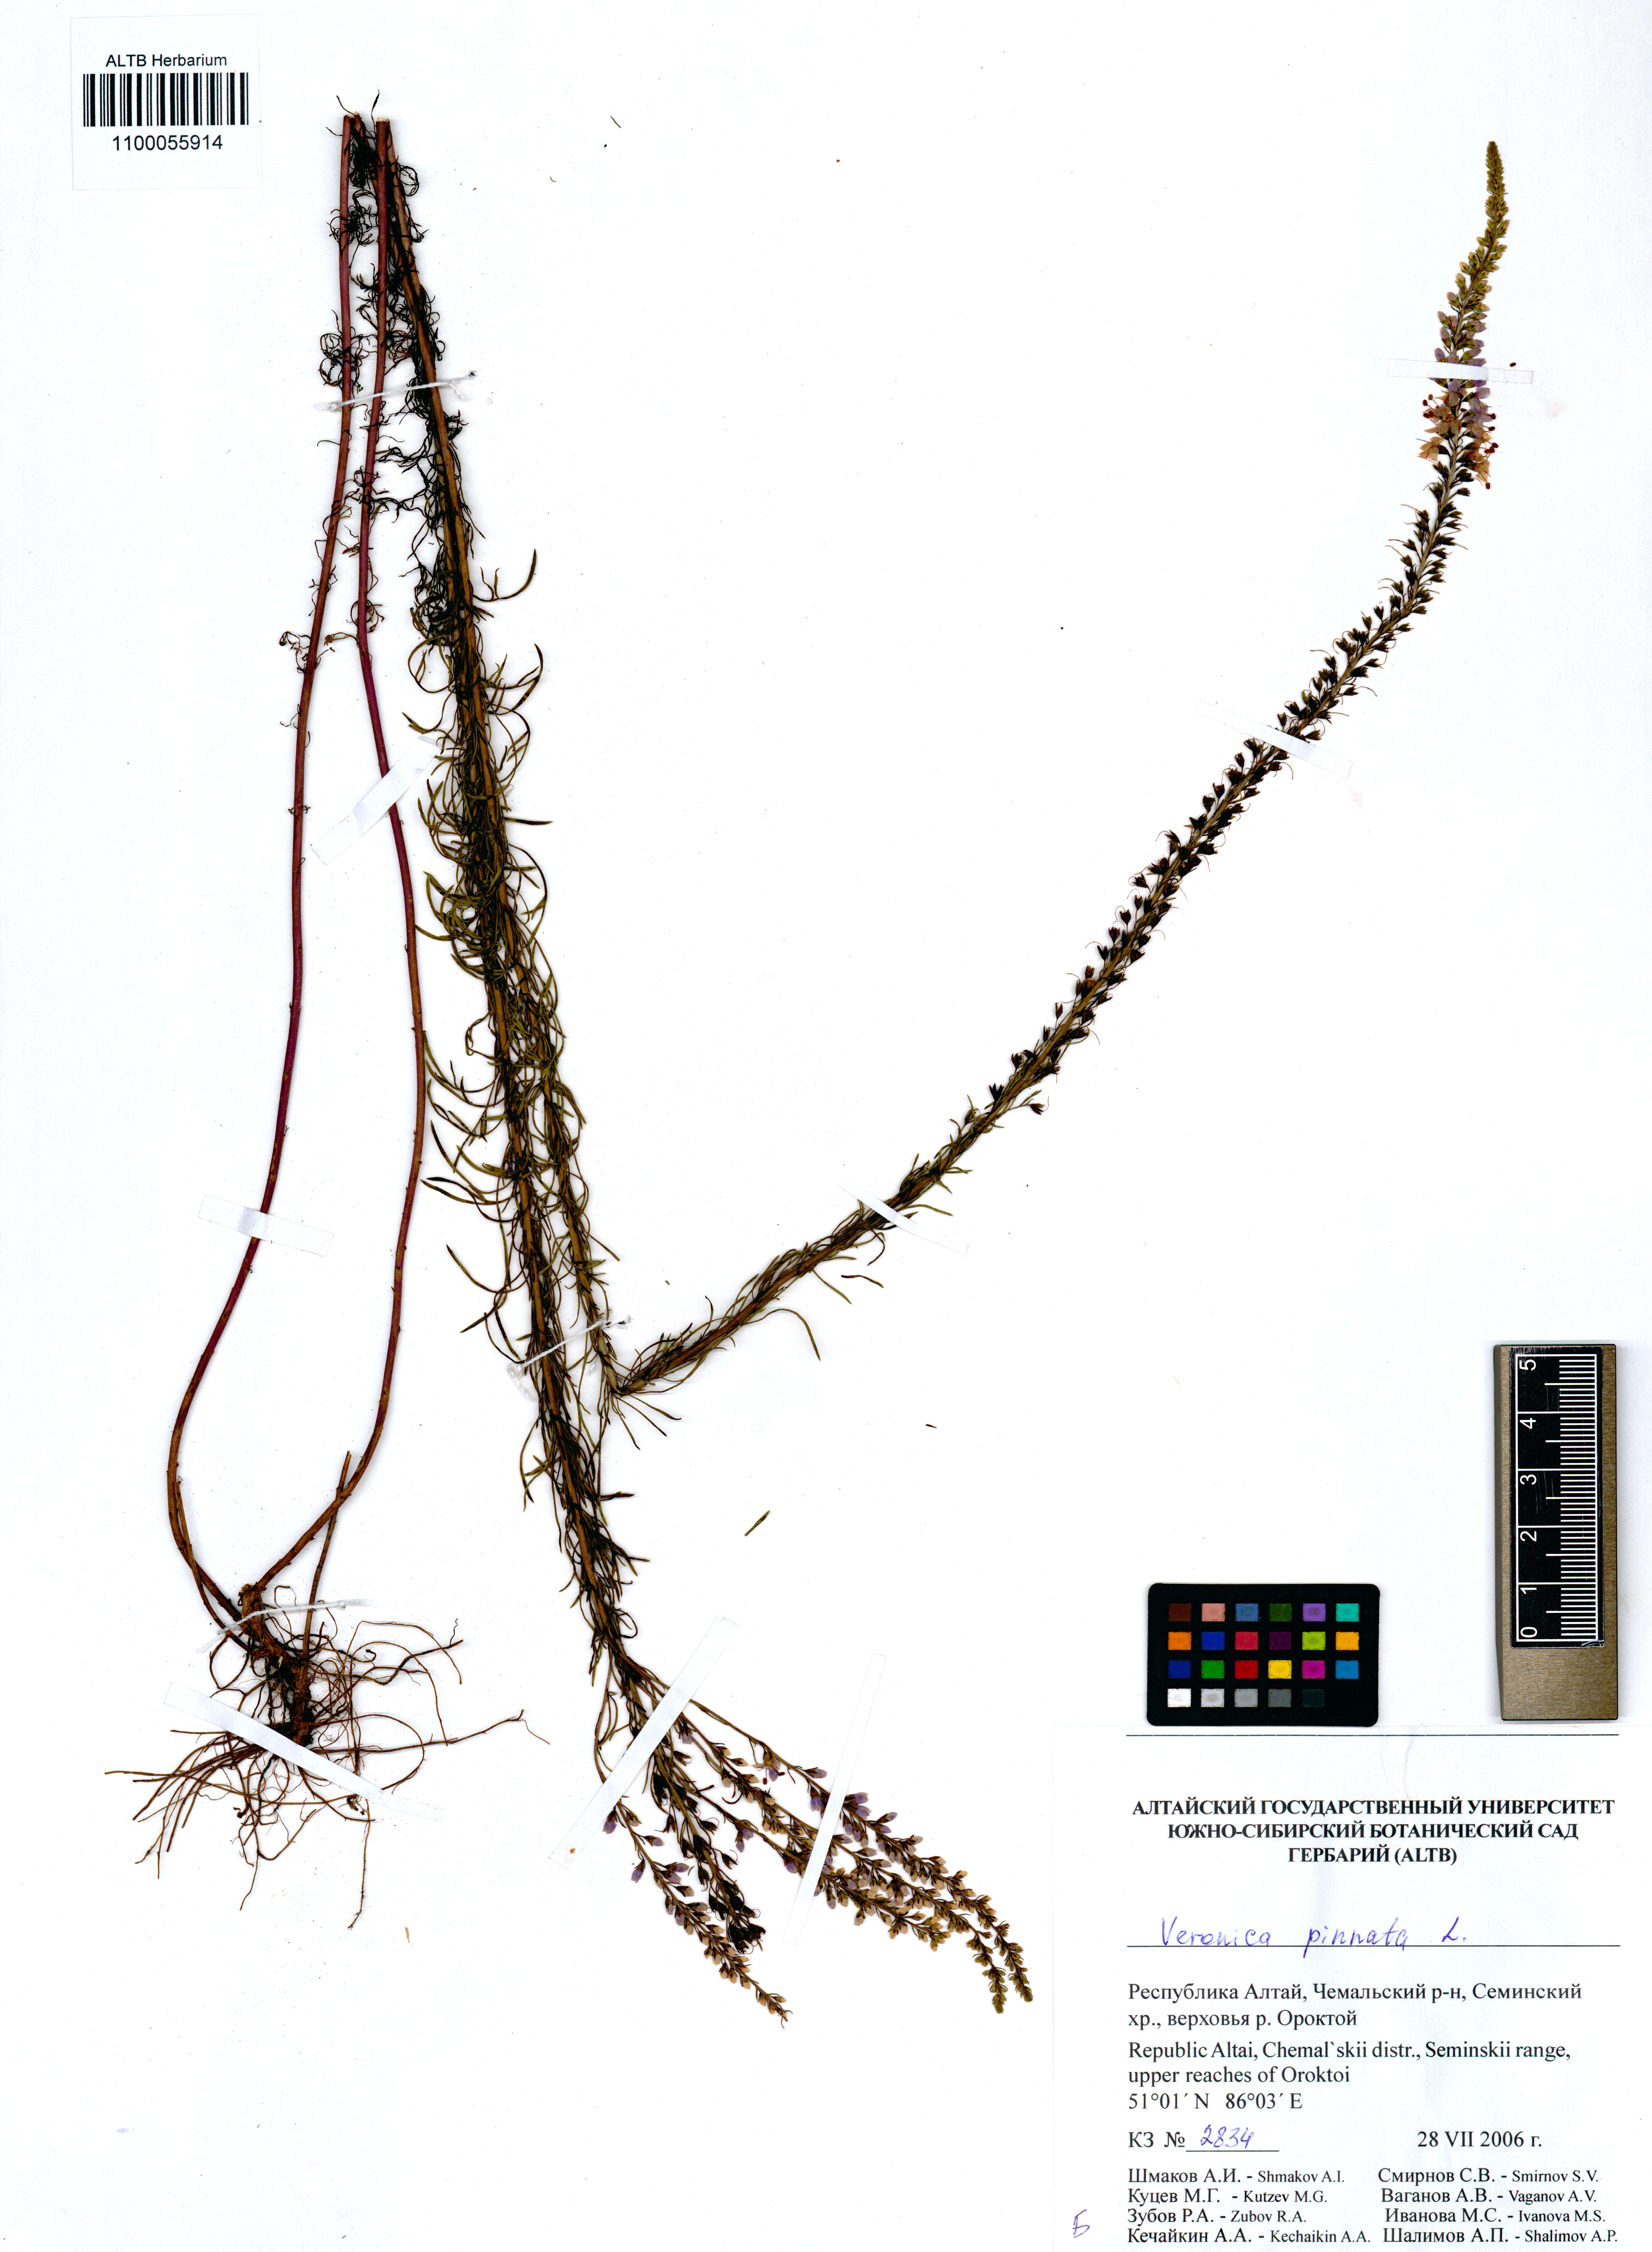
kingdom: Plantae
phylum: Tracheophyta
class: Magnoliopsida
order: Lamiales
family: Plantaginaceae
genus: Veronica
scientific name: Veronica pinnata
